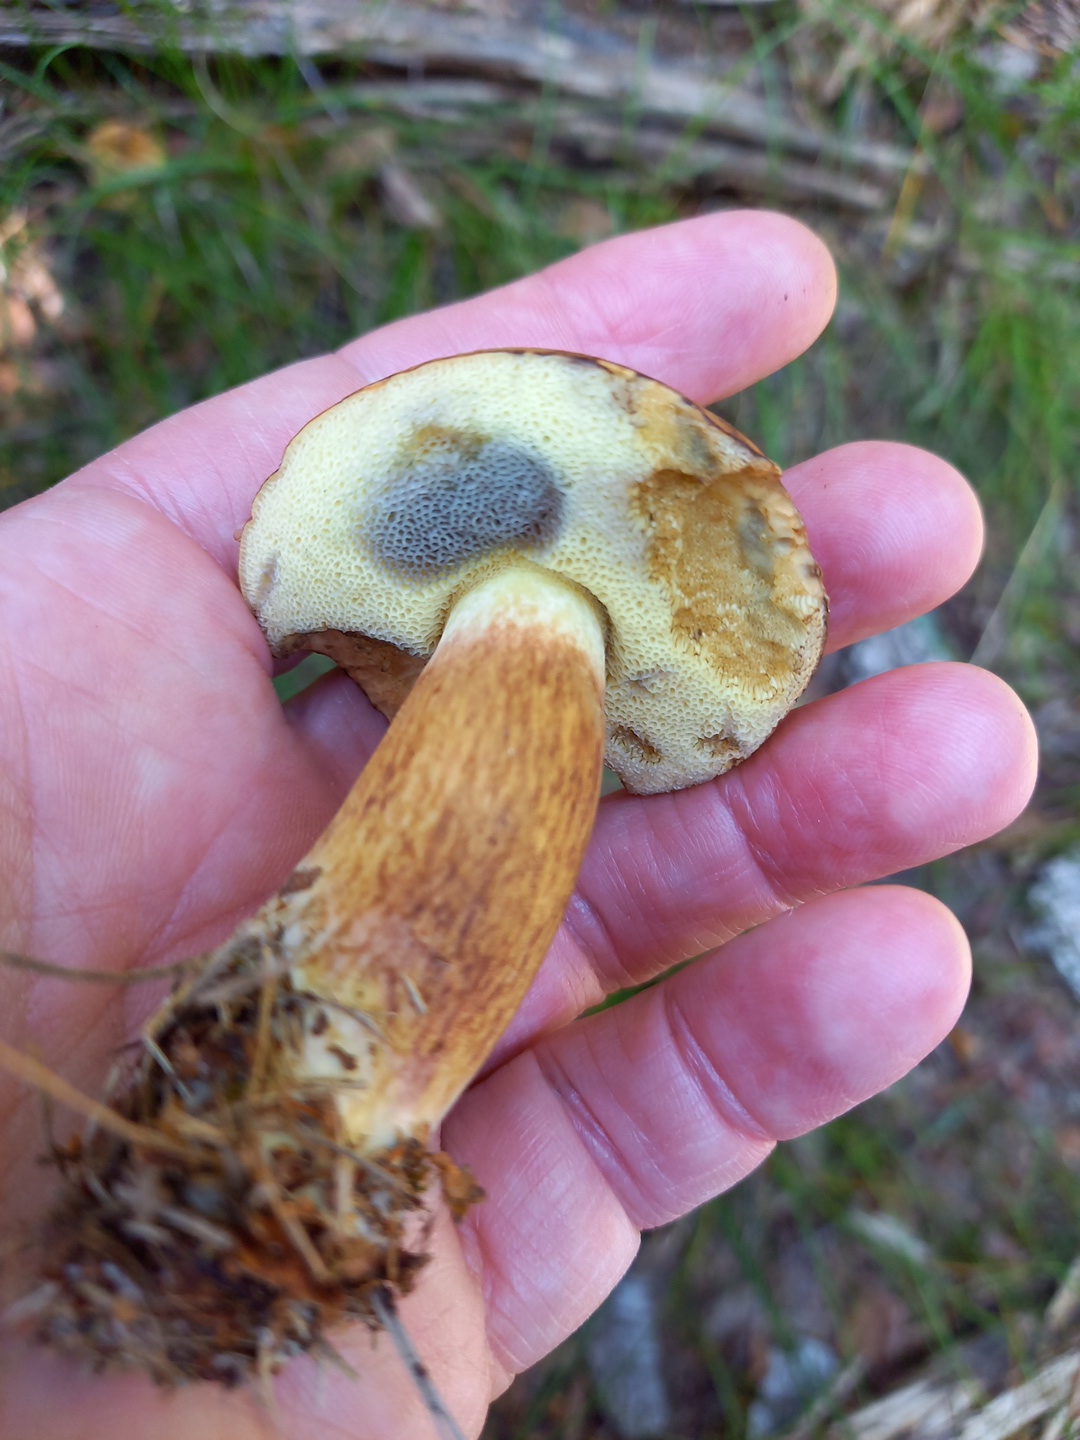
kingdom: Fungi
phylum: Basidiomycota
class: Agaricomycetes
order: Boletales
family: Boletaceae
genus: Imleria
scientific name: Imleria badia
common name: brunstokket rørhat
